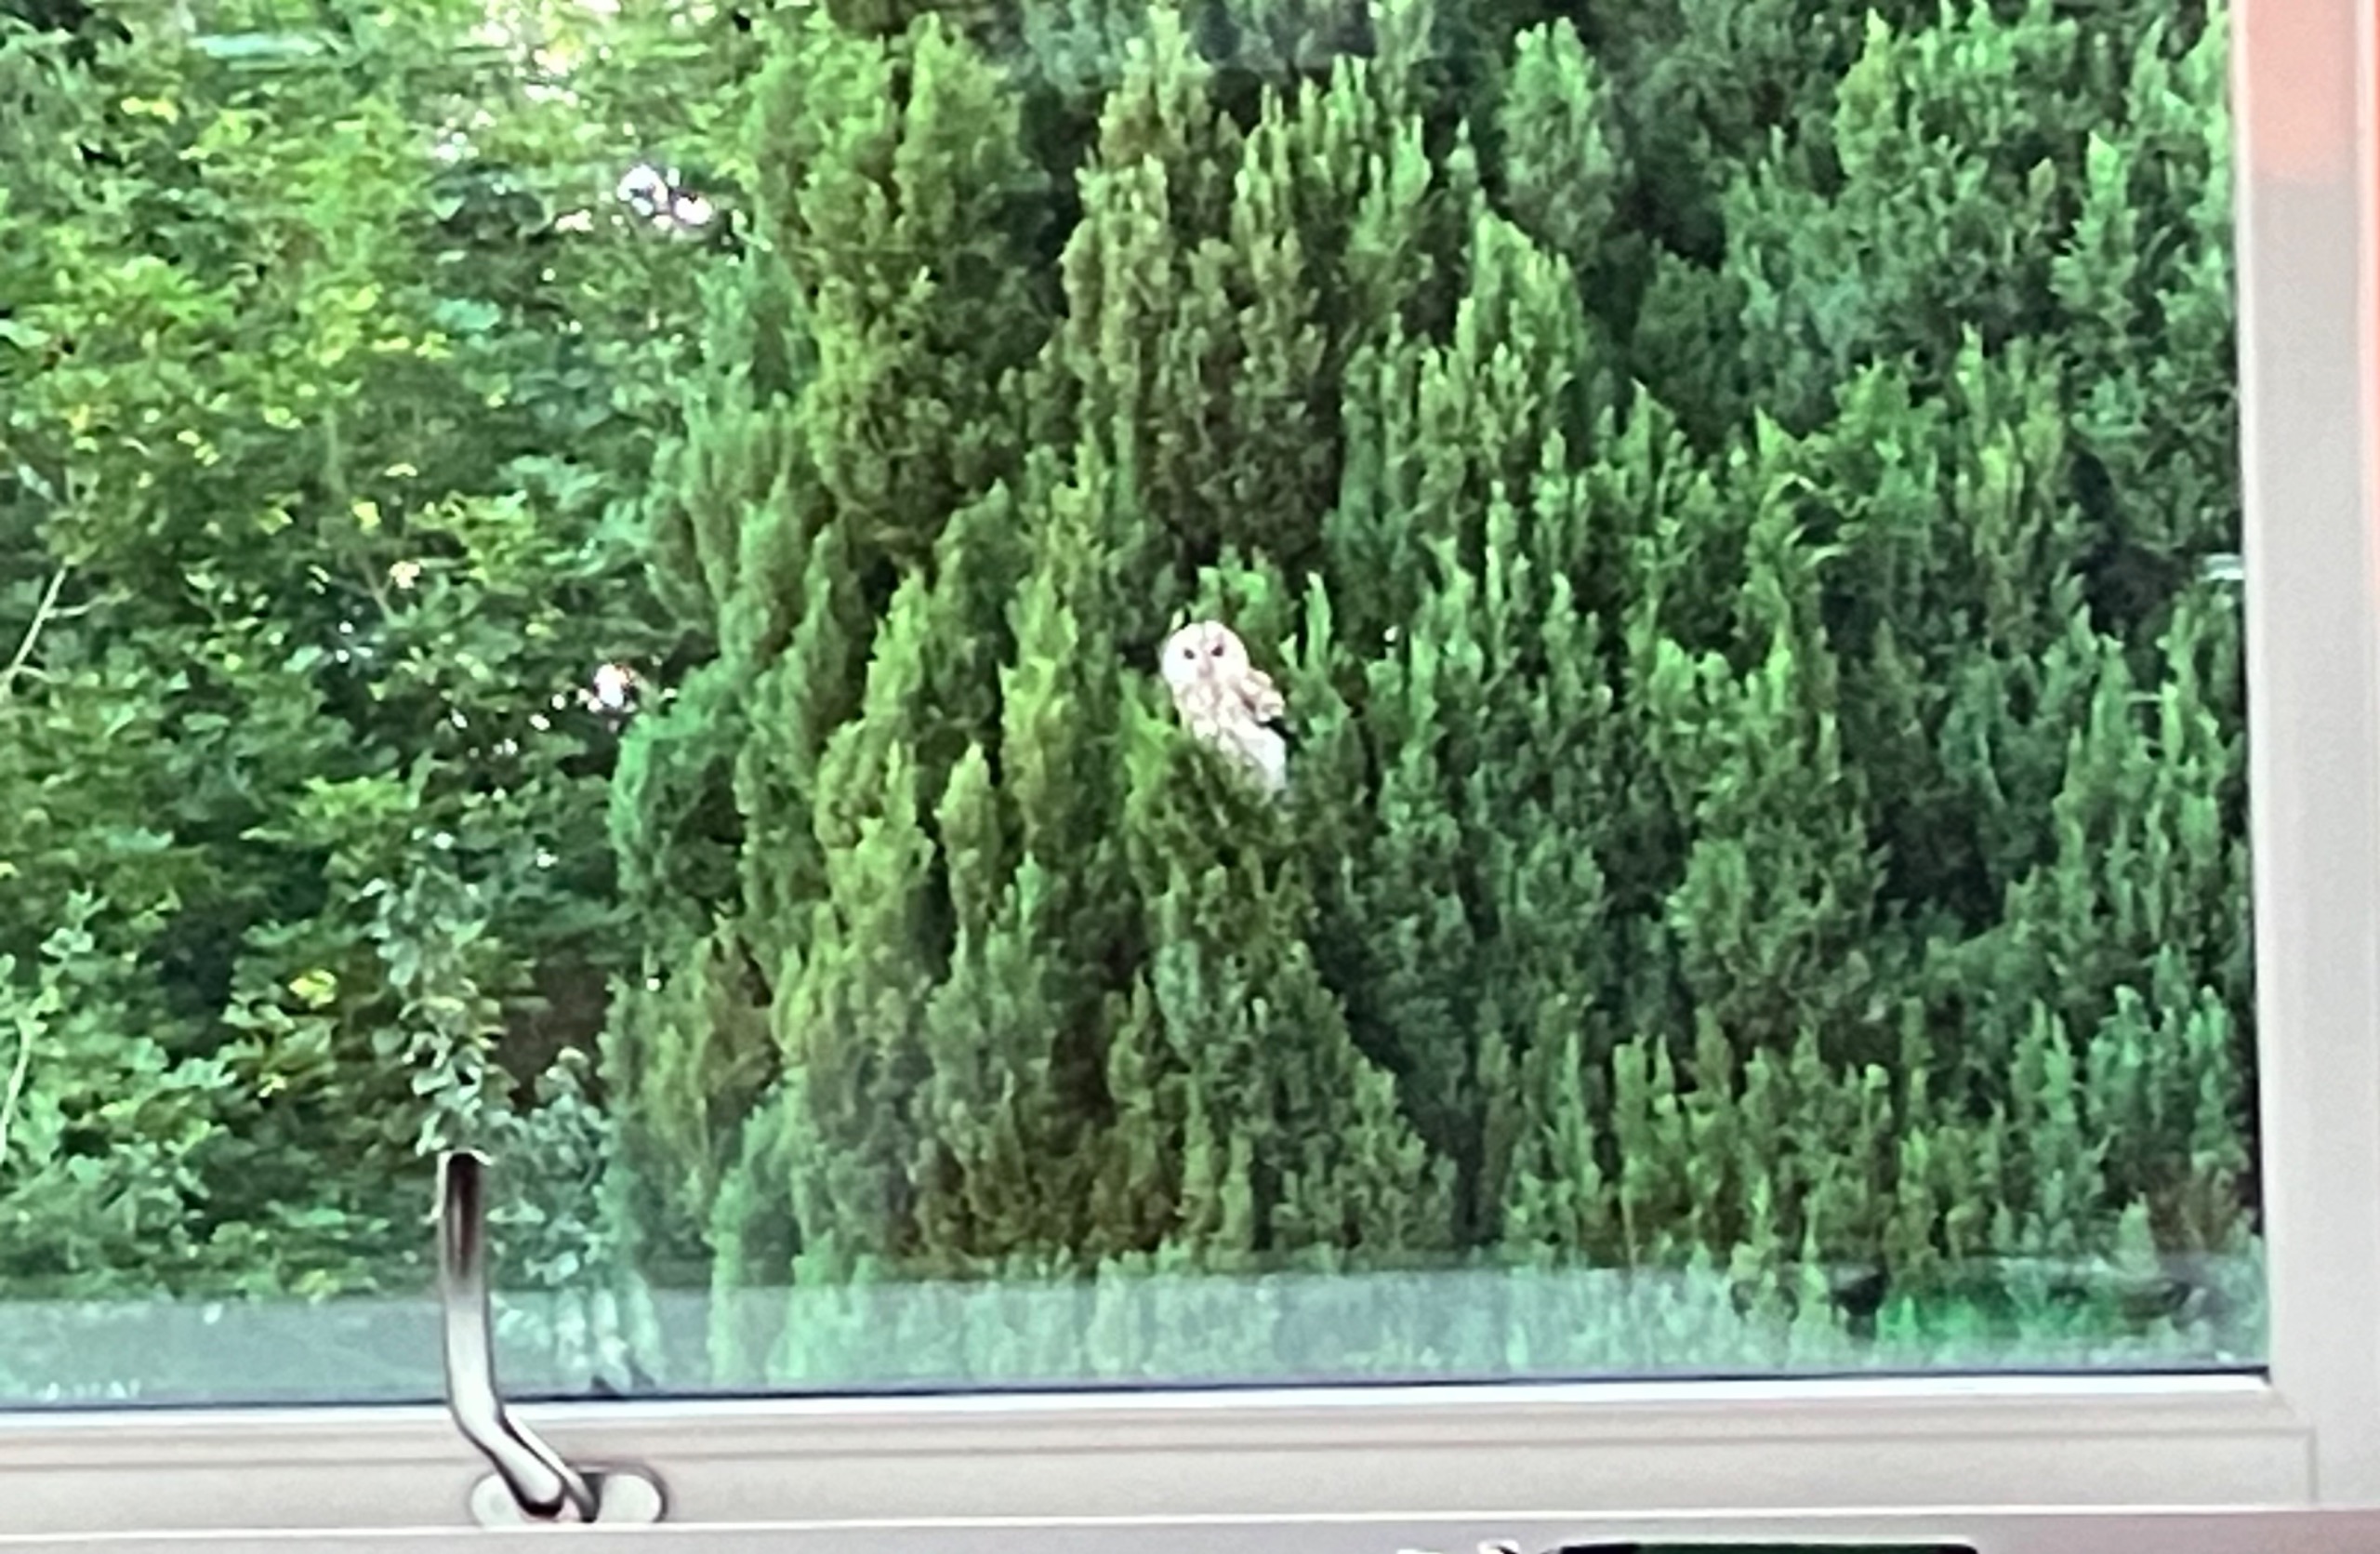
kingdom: Animalia
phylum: Chordata
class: Aves
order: Strigiformes
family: Strigidae
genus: Strix
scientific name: Strix aluco
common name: Natugle
